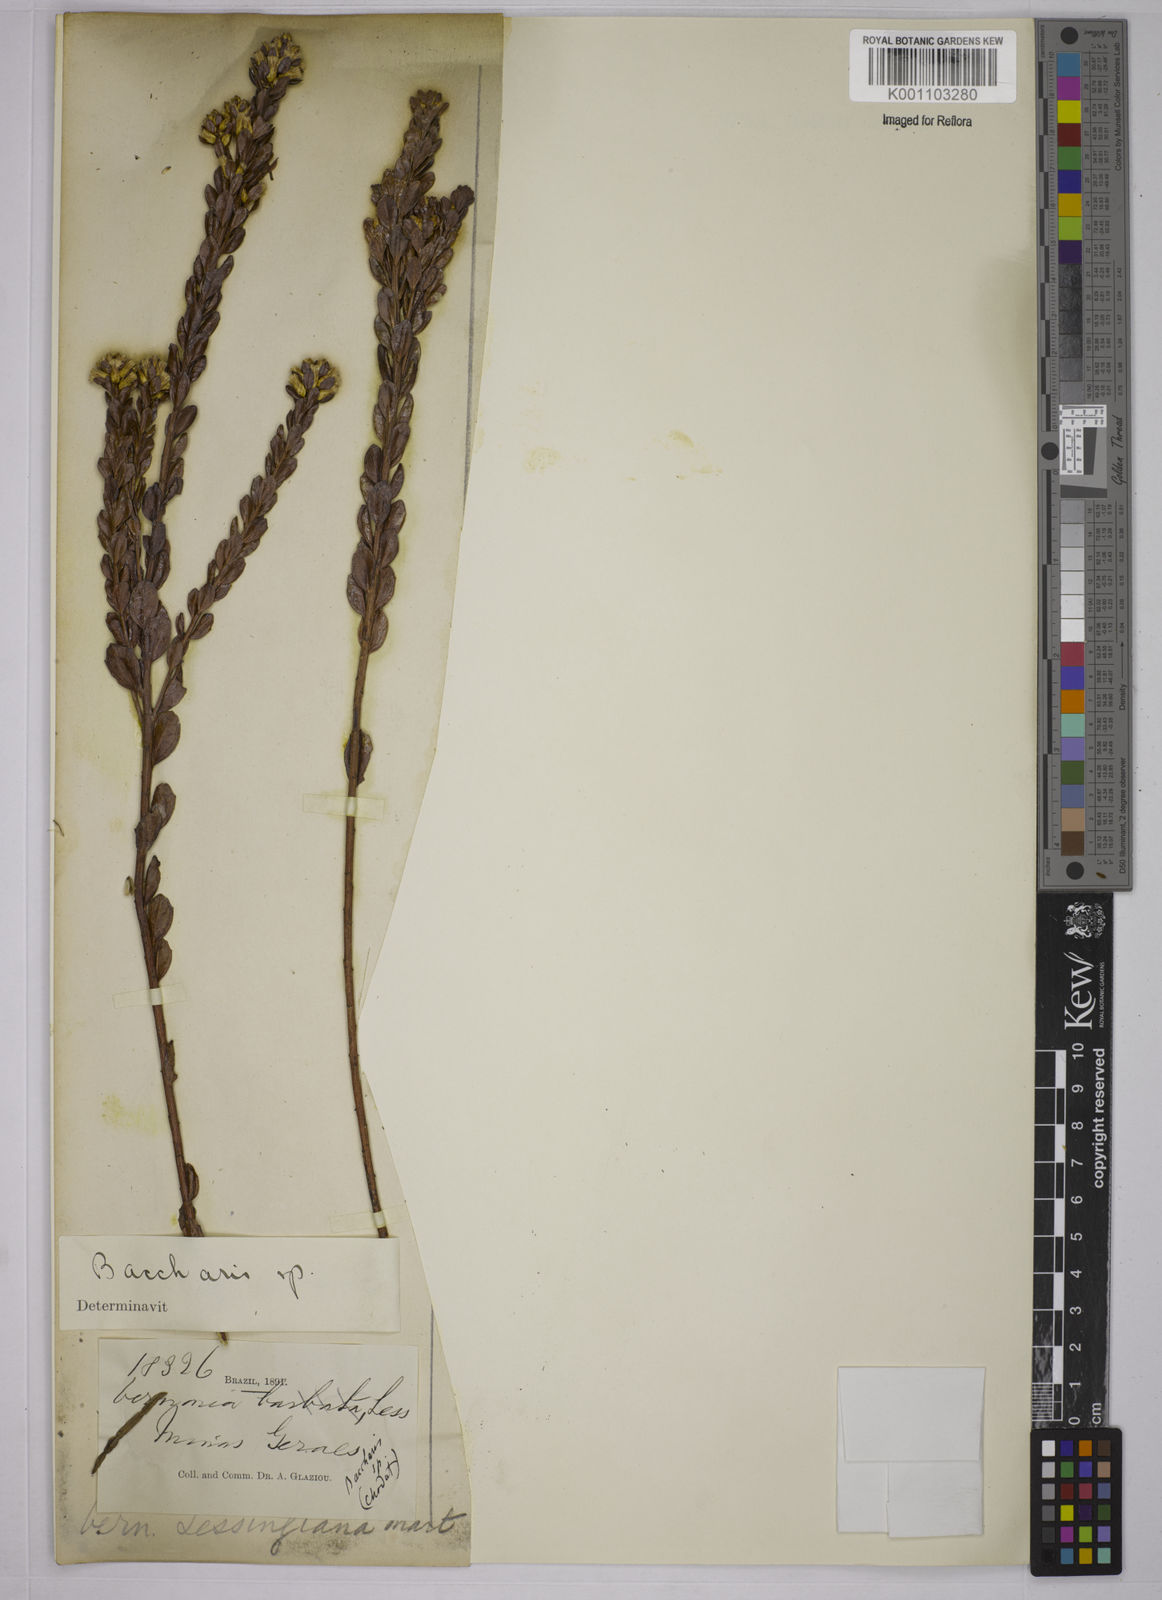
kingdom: Plantae
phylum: Tracheophyta
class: Magnoliopsida
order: Asterales
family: Asteraceae
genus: Baccharis
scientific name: Baccharis
